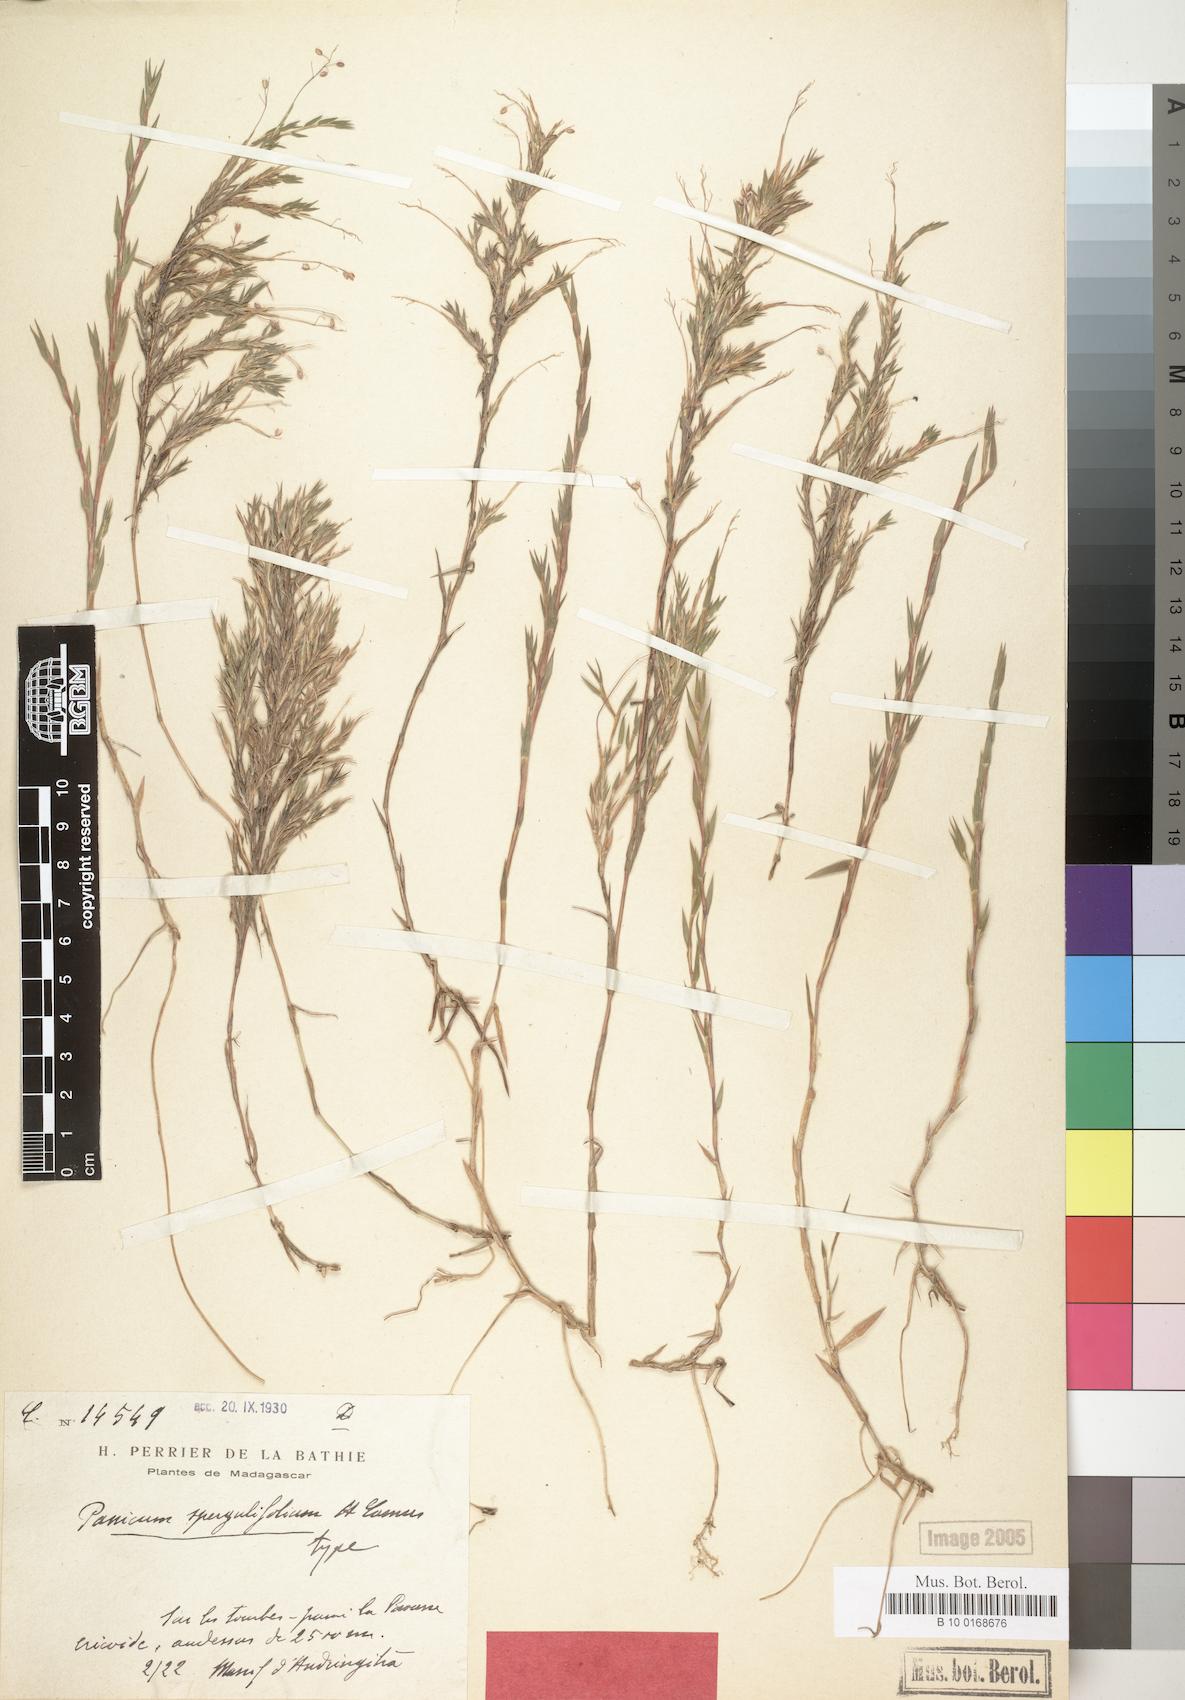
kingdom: Plantae
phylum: Tracheophyta
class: Liliopsida
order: Poales
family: Poaceae
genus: Panicum
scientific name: Panicum spergulifolium
